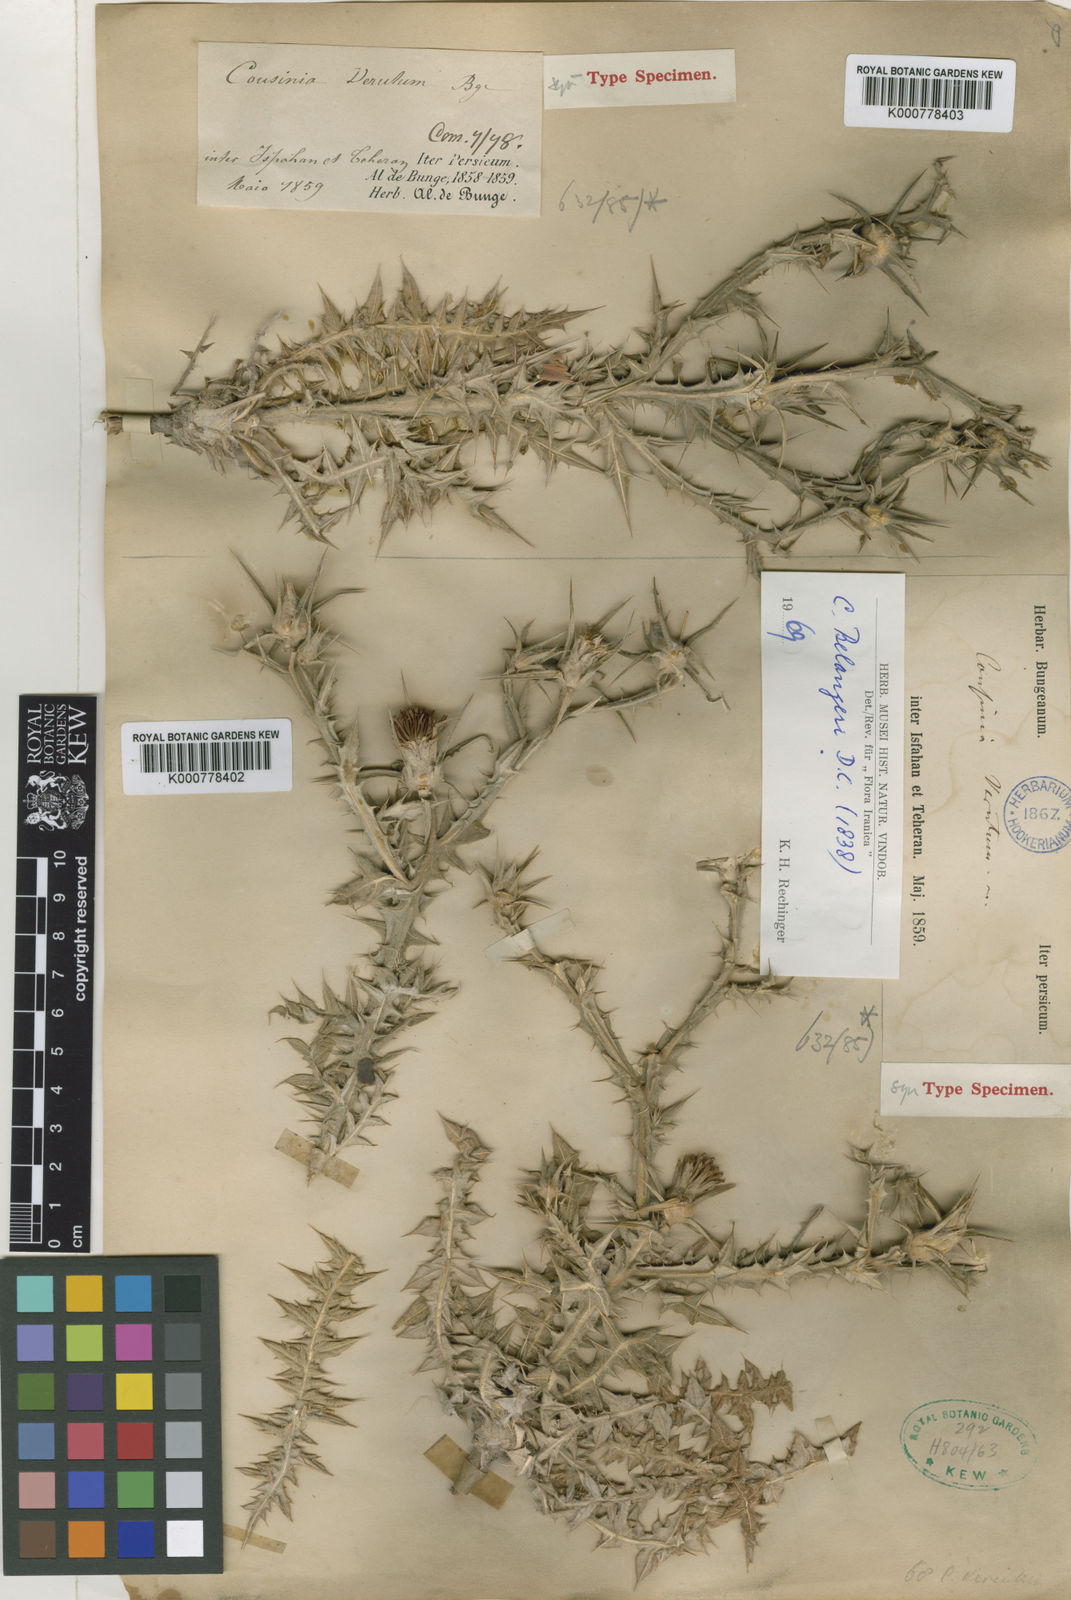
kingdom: Plantae
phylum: Tracheophyta
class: Magnoliopsida
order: Asterales
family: Asteraceae
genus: Cousinia
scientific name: Cousinia belangeri
